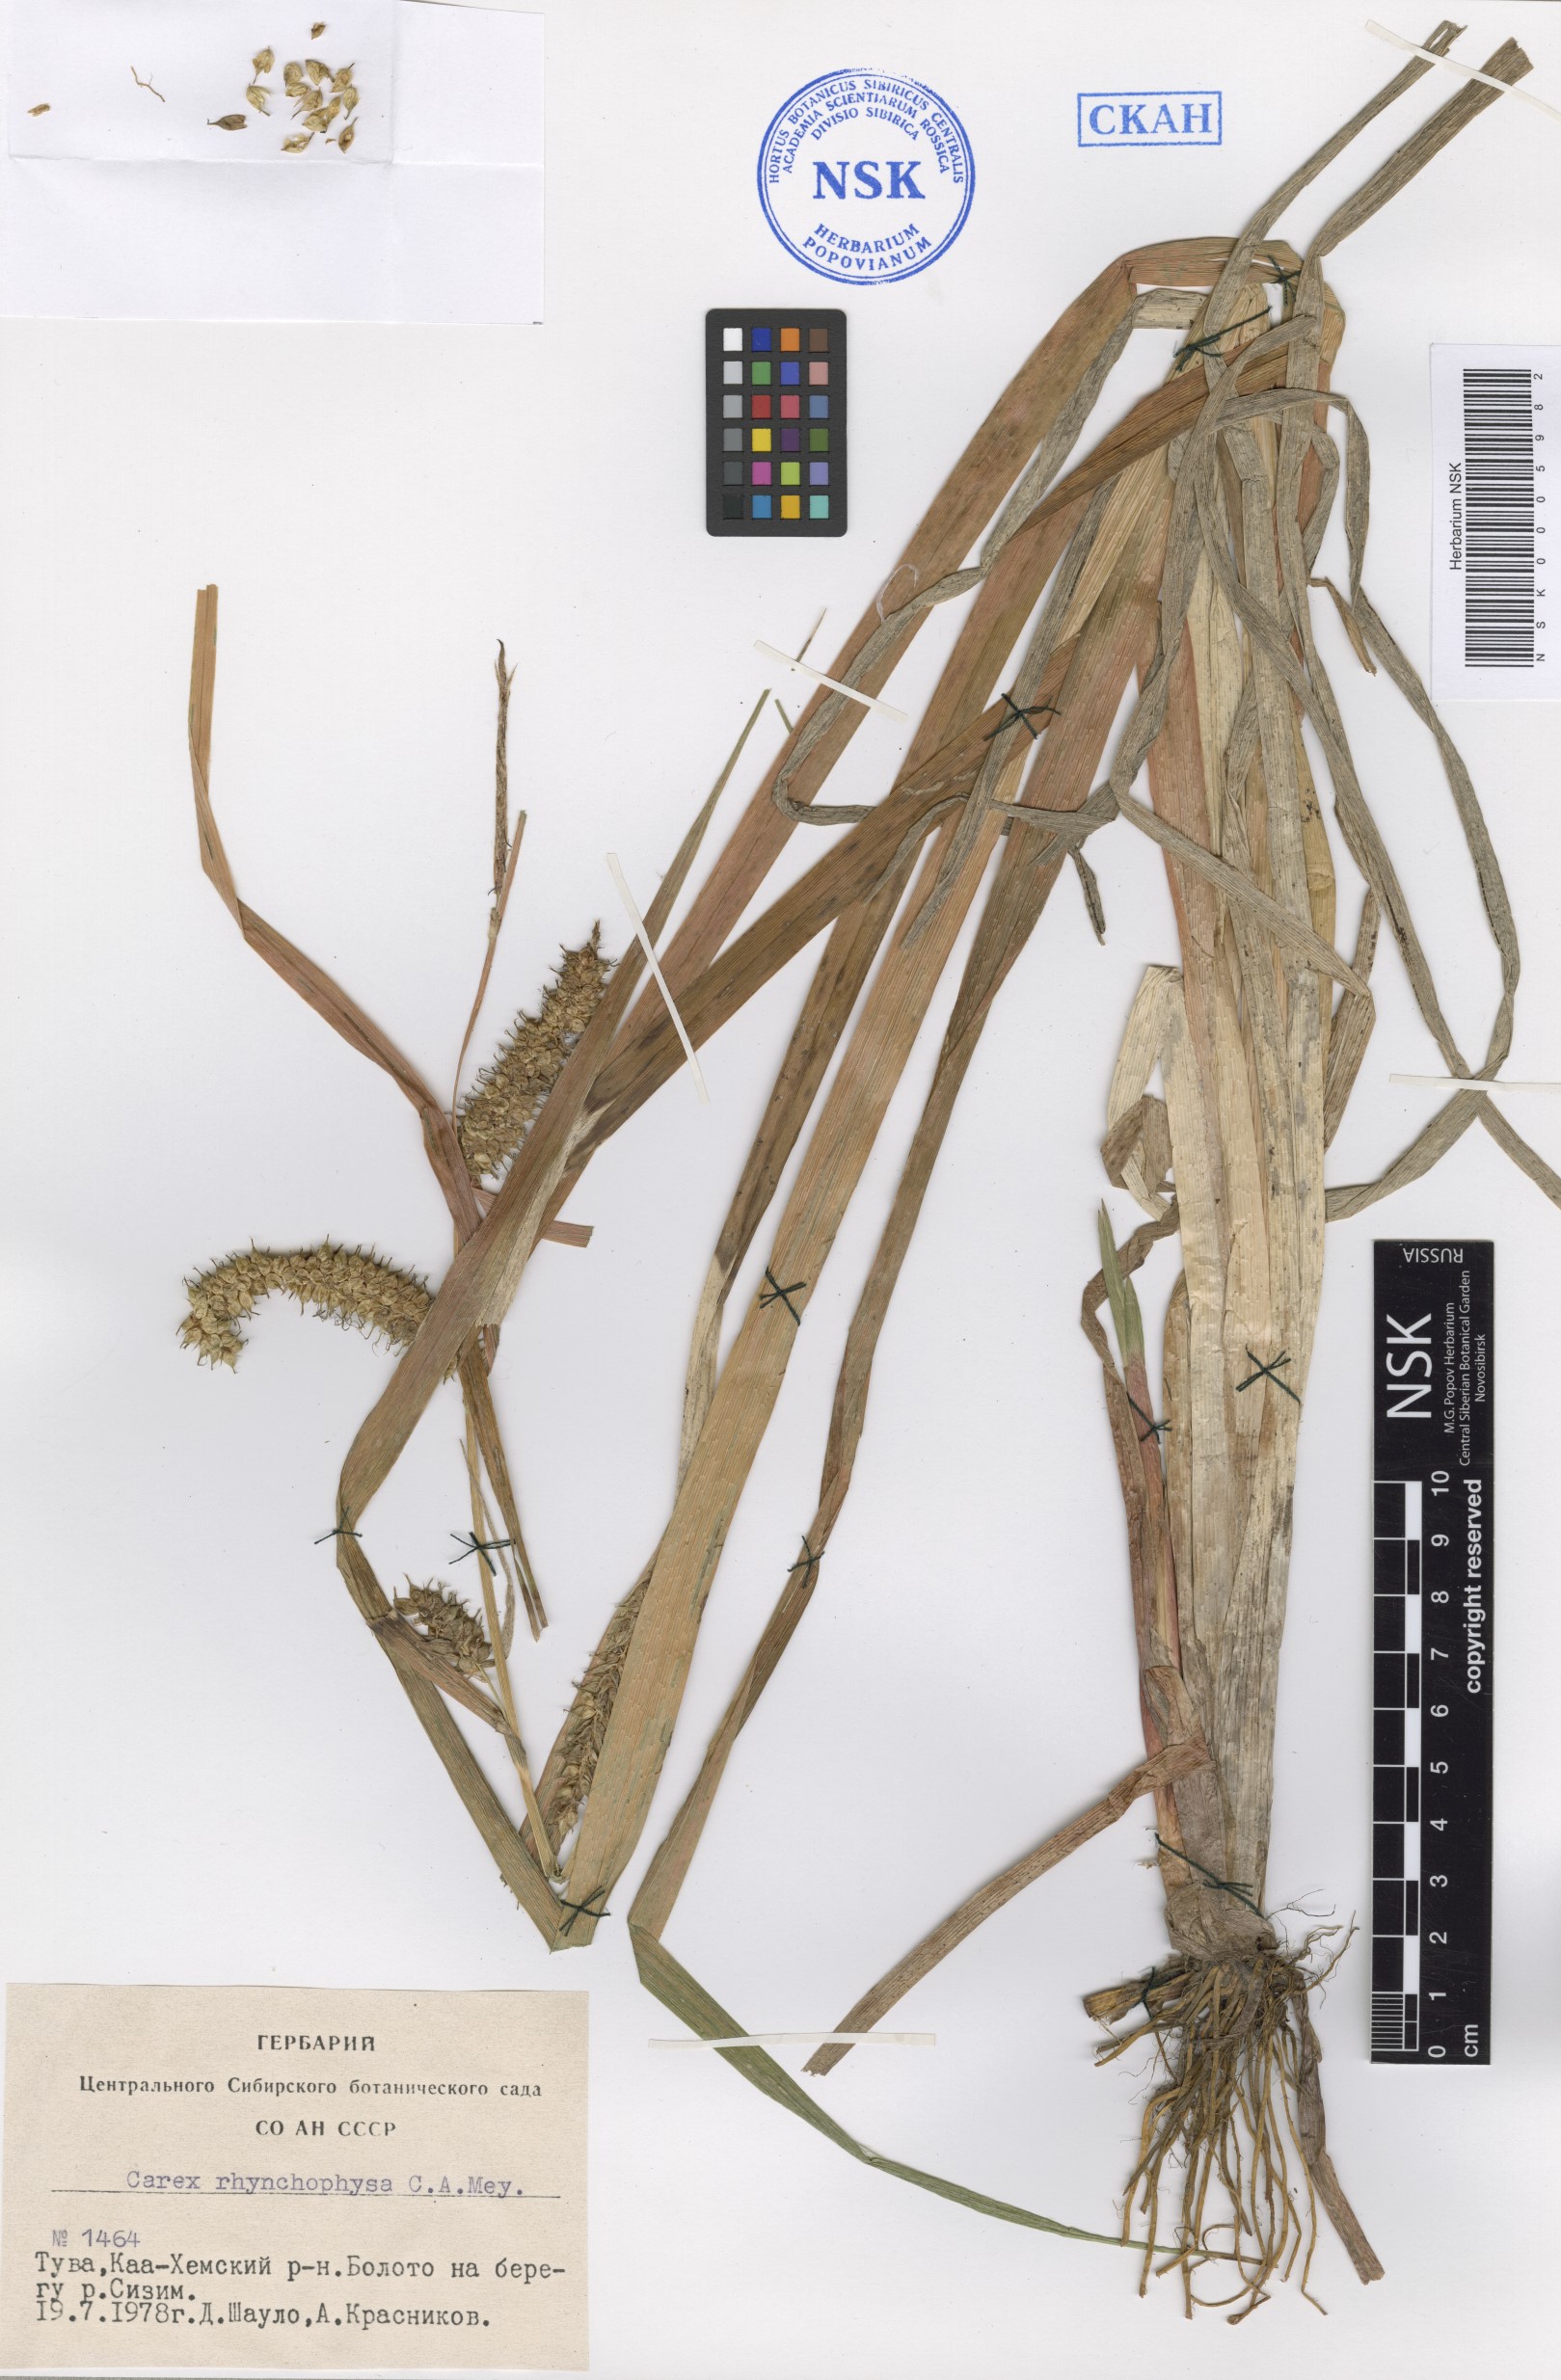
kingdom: Plantae
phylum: Tracheophyta
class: Liliopsida
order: Poales
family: Cyperaceae
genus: Carex
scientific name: Carex utriculata
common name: Beaked sedge
